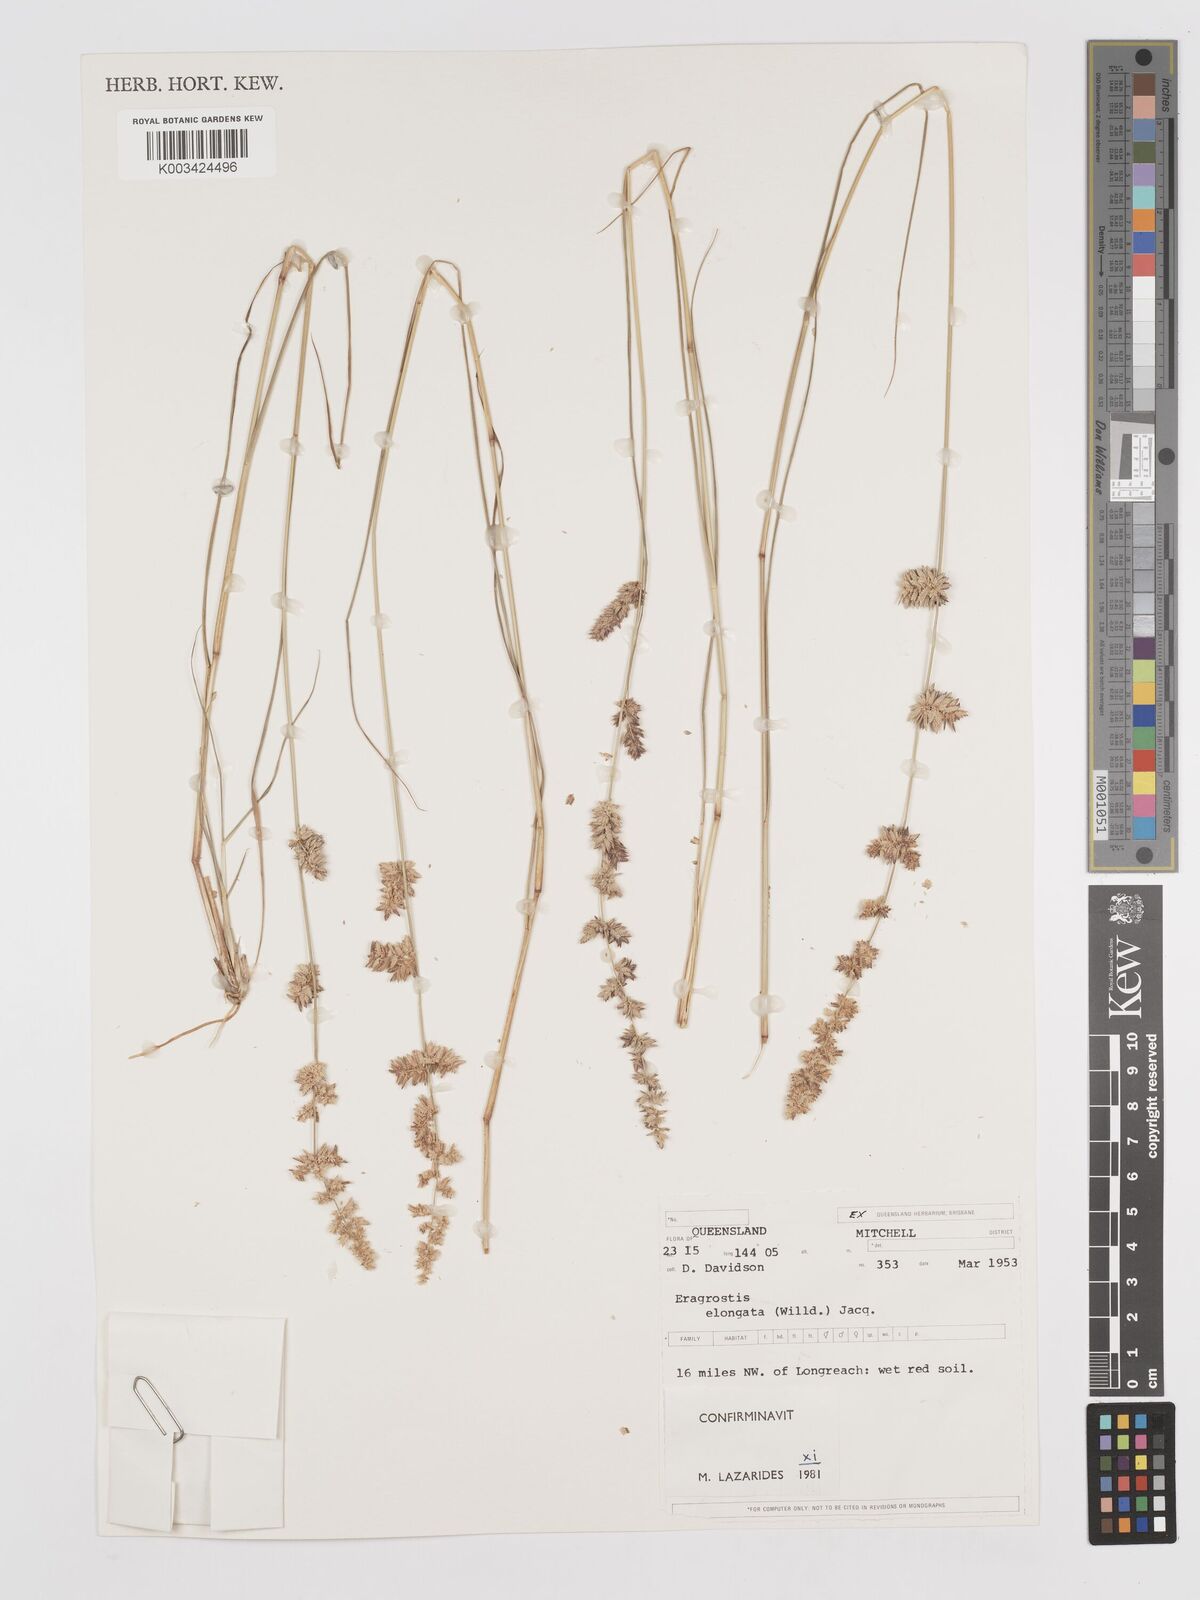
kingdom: Plantae
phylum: Tracheophyta
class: Liliopsida
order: Poales
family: Poaceae
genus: Eragrostis
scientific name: Eragrostis elongata
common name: Long lovegrass
